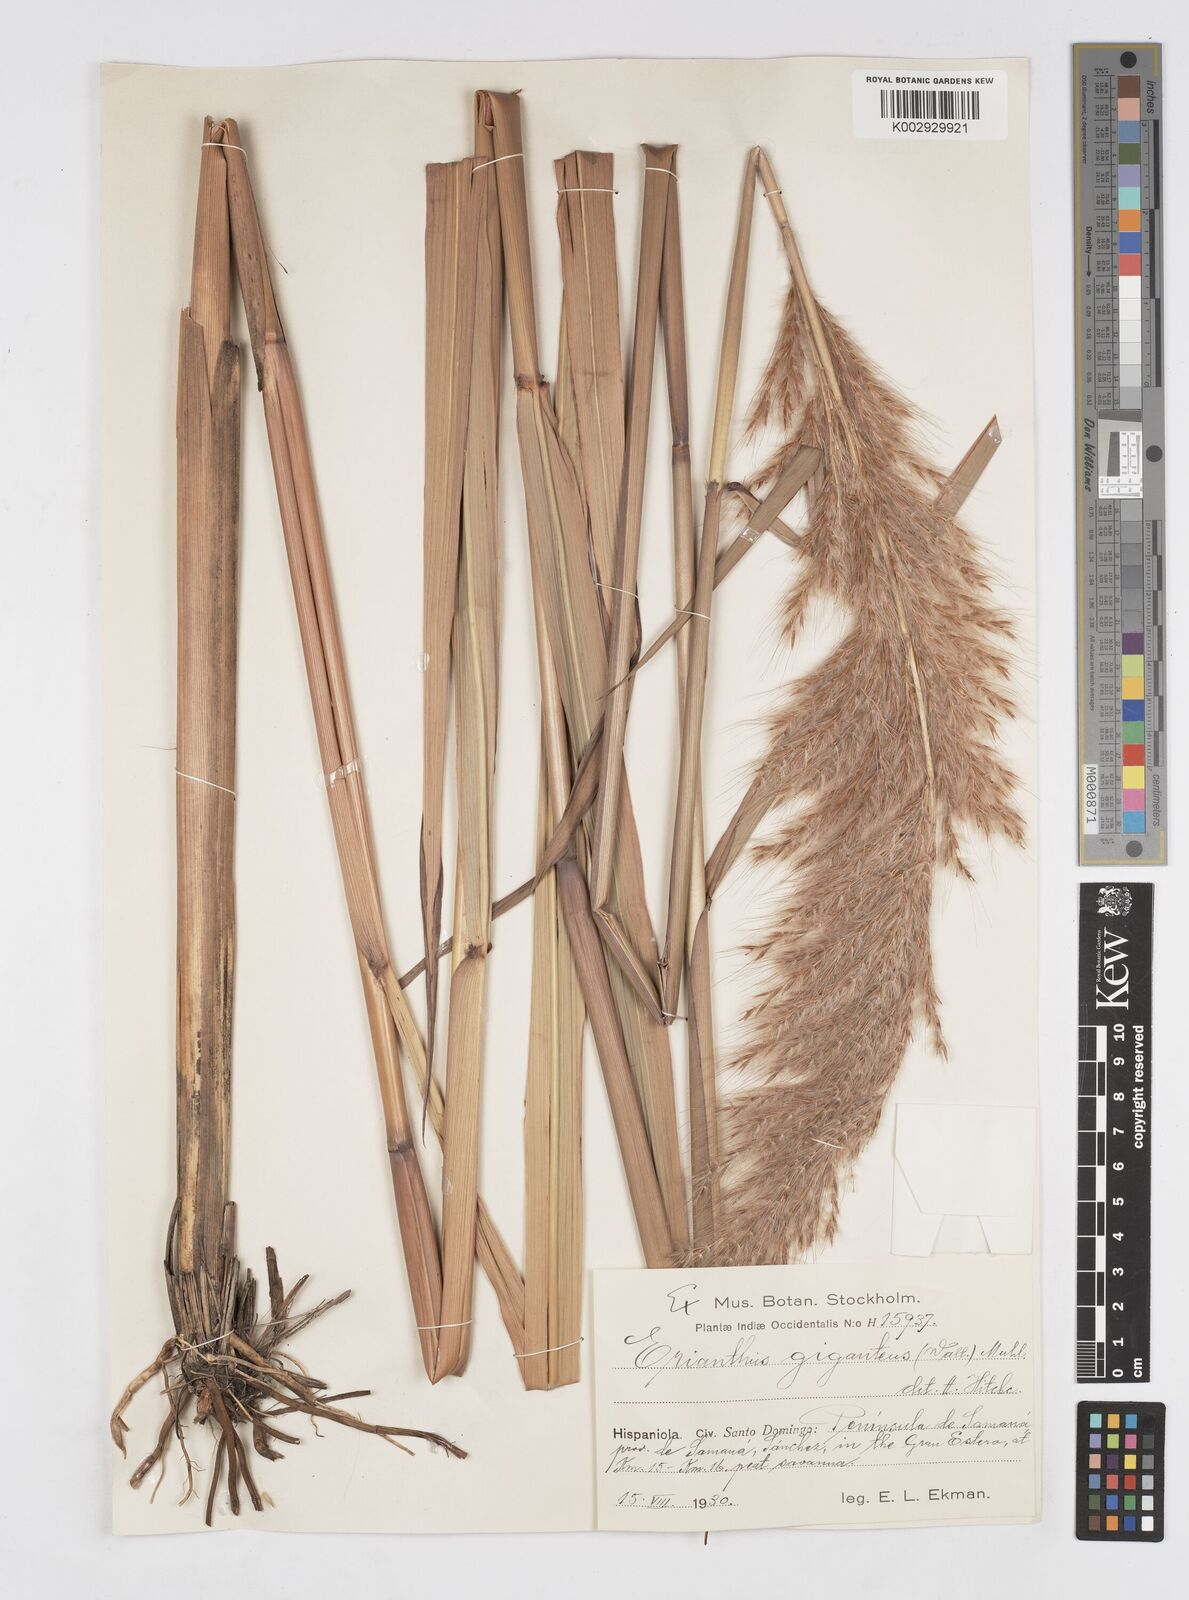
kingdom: Plantae
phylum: Tracheophyta
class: Liliopsida
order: Poales
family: Poaceae
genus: Erianthus
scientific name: Erianthus giganteus
